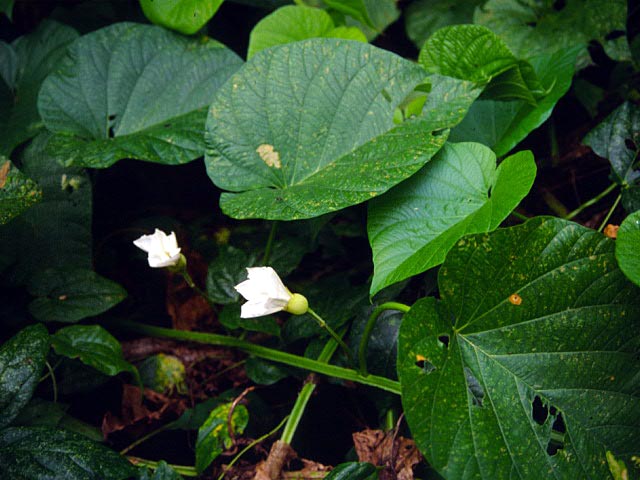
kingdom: Plantae
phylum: Tracheophyta
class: Magnoliopsida
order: Solanales
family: Convolvulaceae
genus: Operculina
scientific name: Operculina turpethum
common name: Transparent wood-rose
